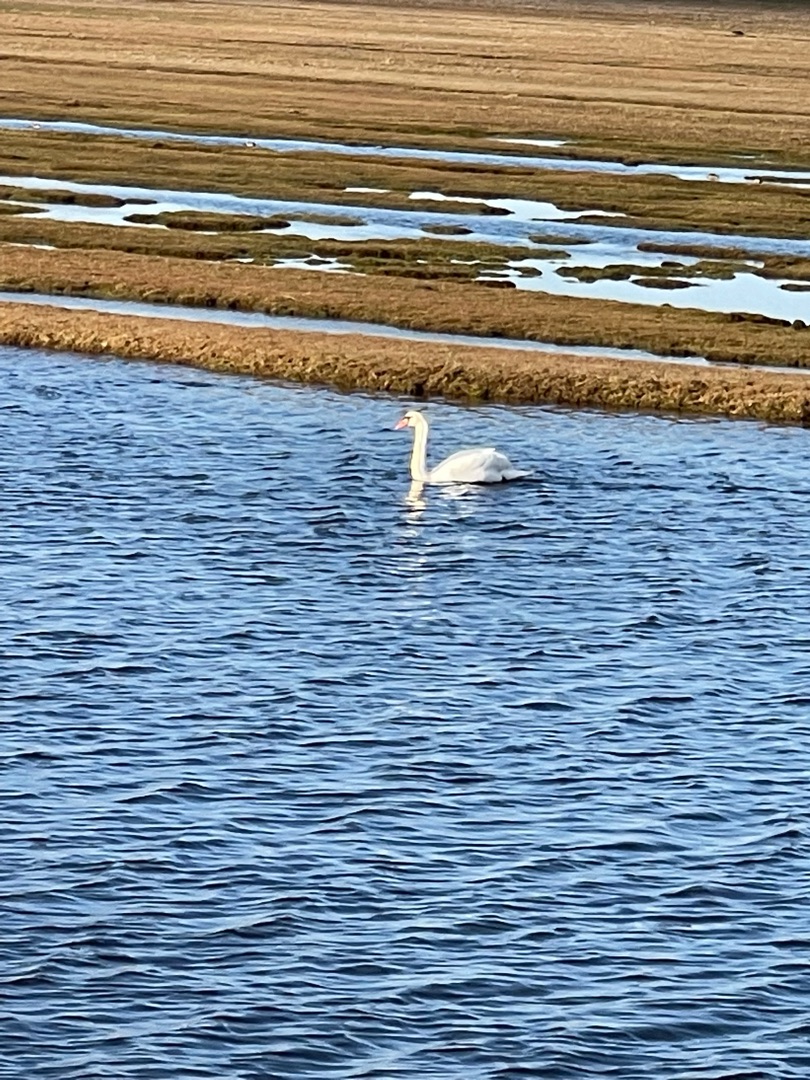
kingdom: Animalia
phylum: Chordata
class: Aves
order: Anseriformes
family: Anatidae
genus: Cygnus
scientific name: Cygnus olor
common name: Knopsvane
